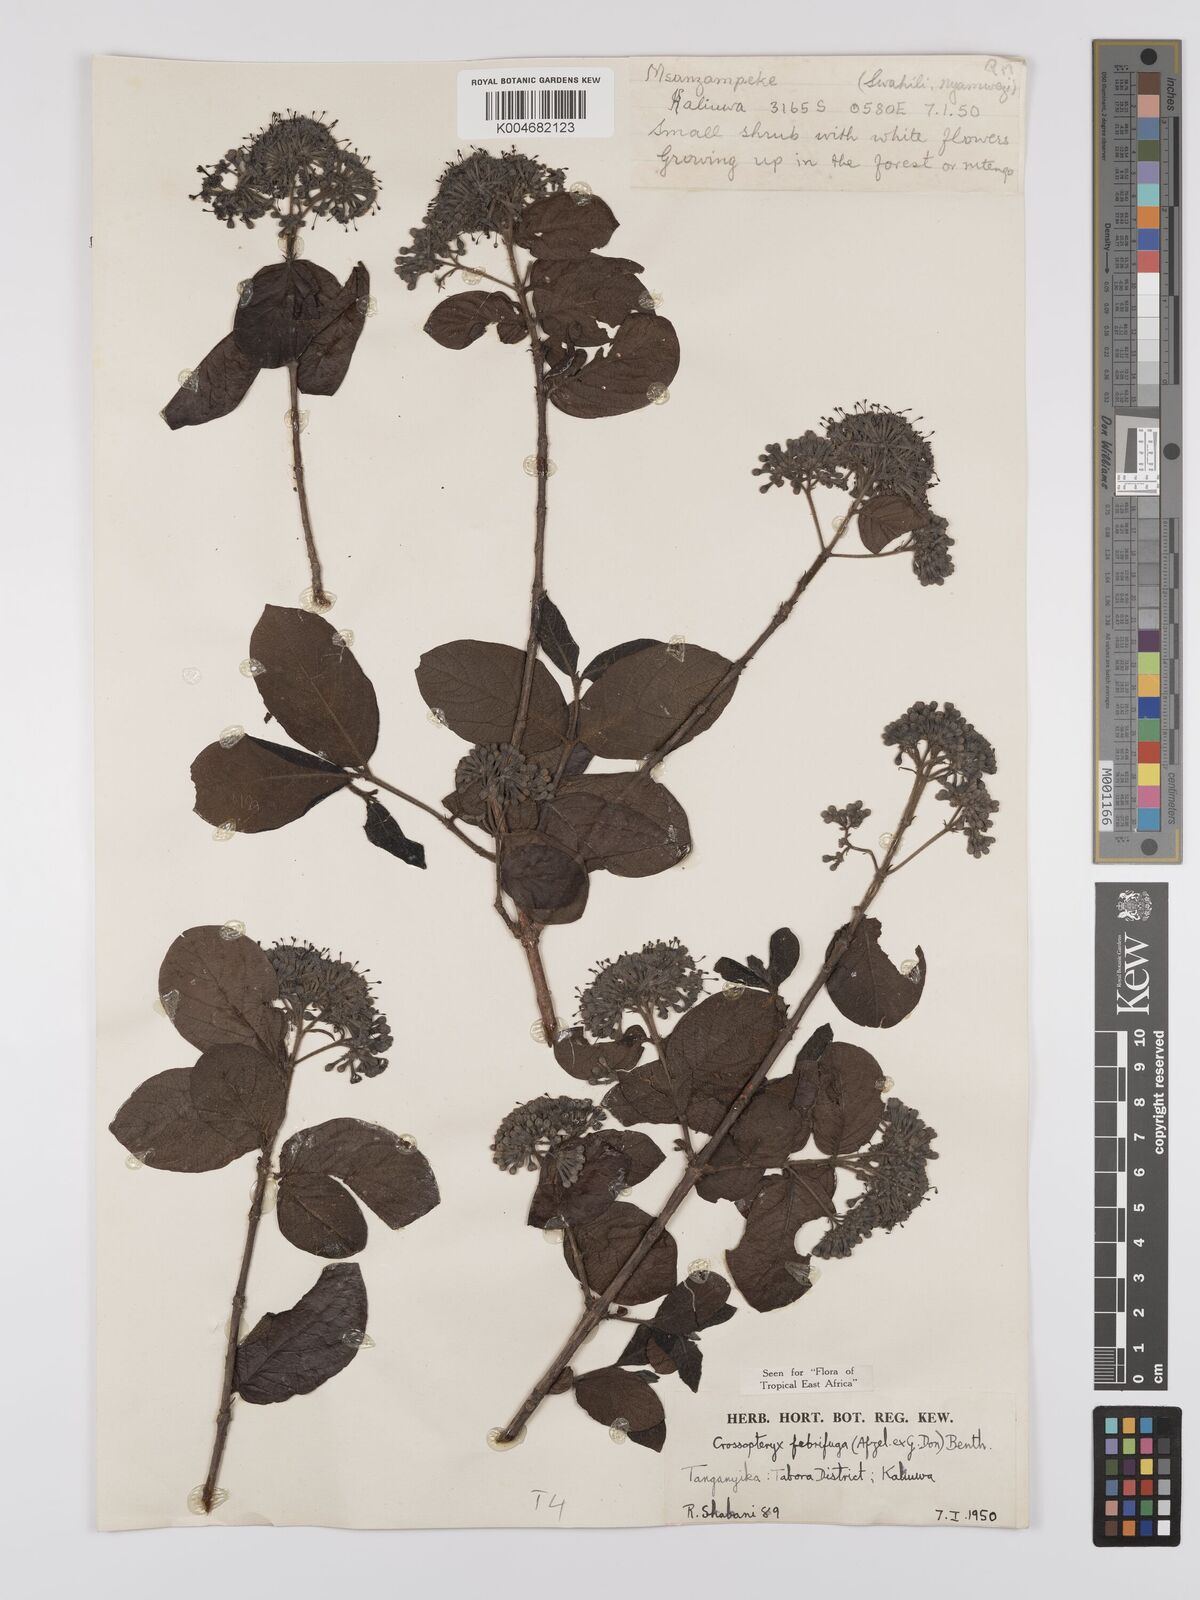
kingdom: Plantae
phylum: Tracheophyta
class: Magnoliopsida
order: Gentianales
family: Rubiaceae
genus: Crossopteryx
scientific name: Crossopteryx febrifuga
